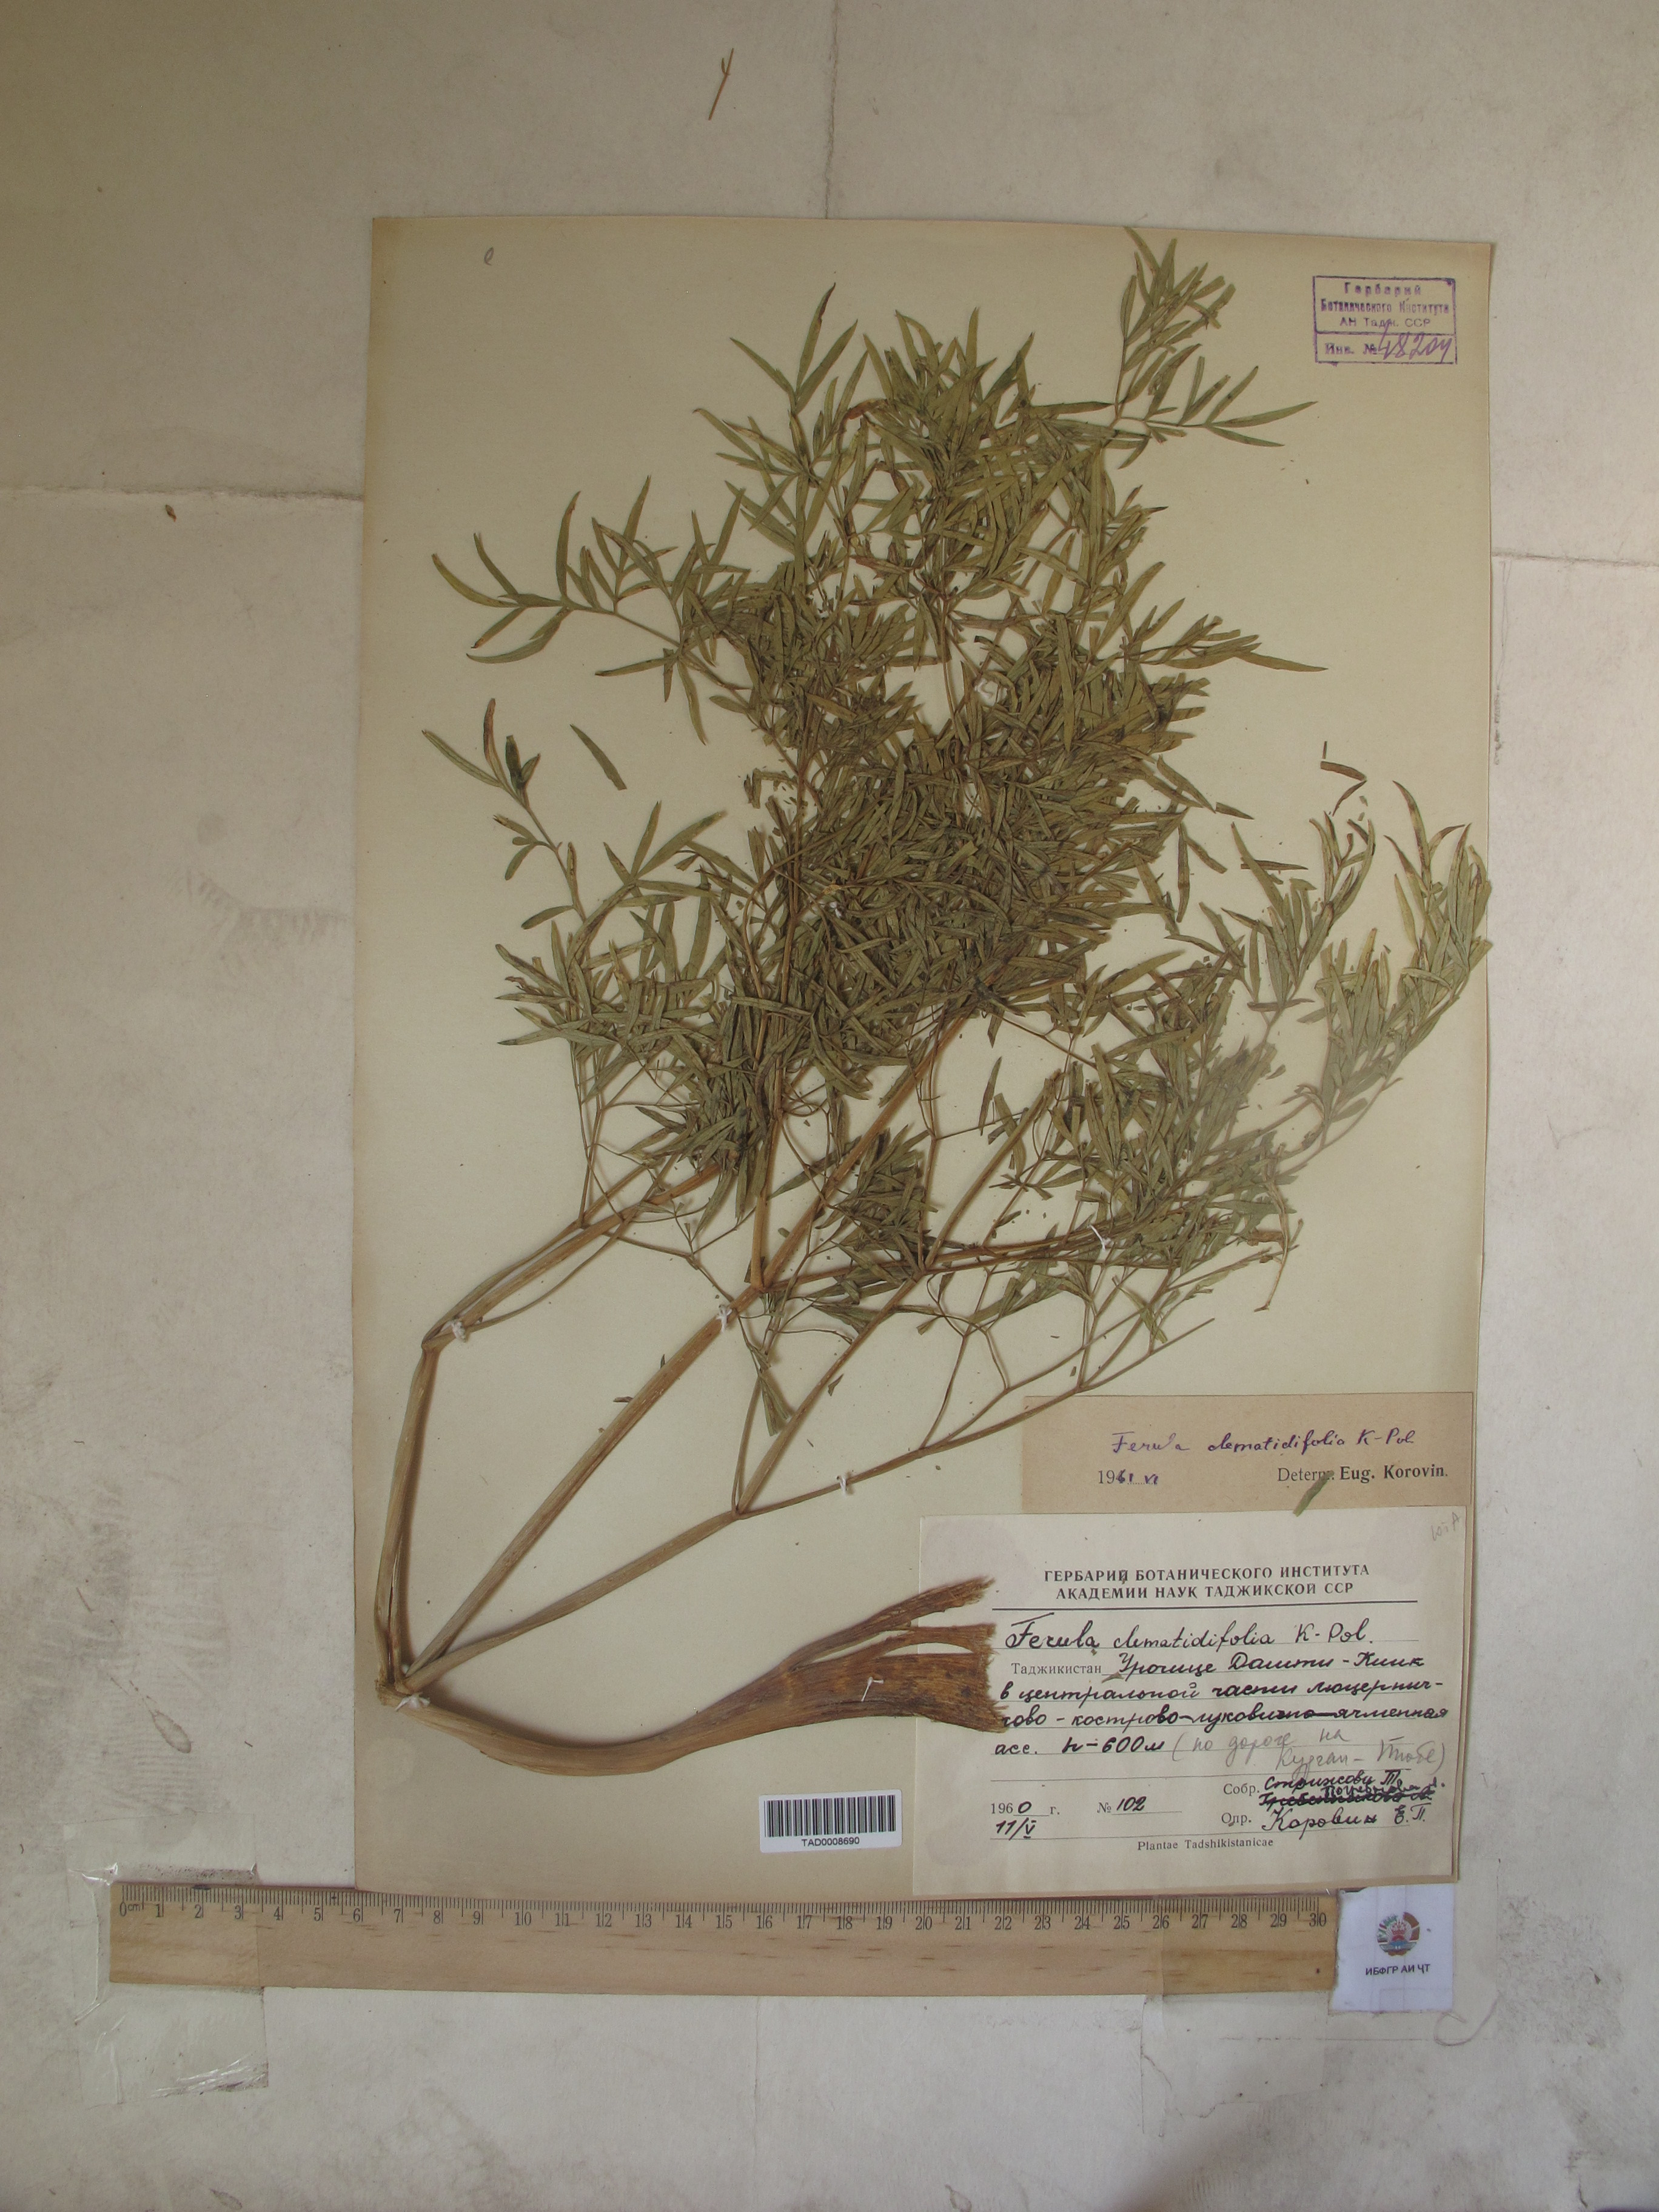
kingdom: Plantae
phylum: Tracheophyta
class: Magnoliopsida
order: Apiales
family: Apiaceae
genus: Ferula
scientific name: Ferula clematidifolia
